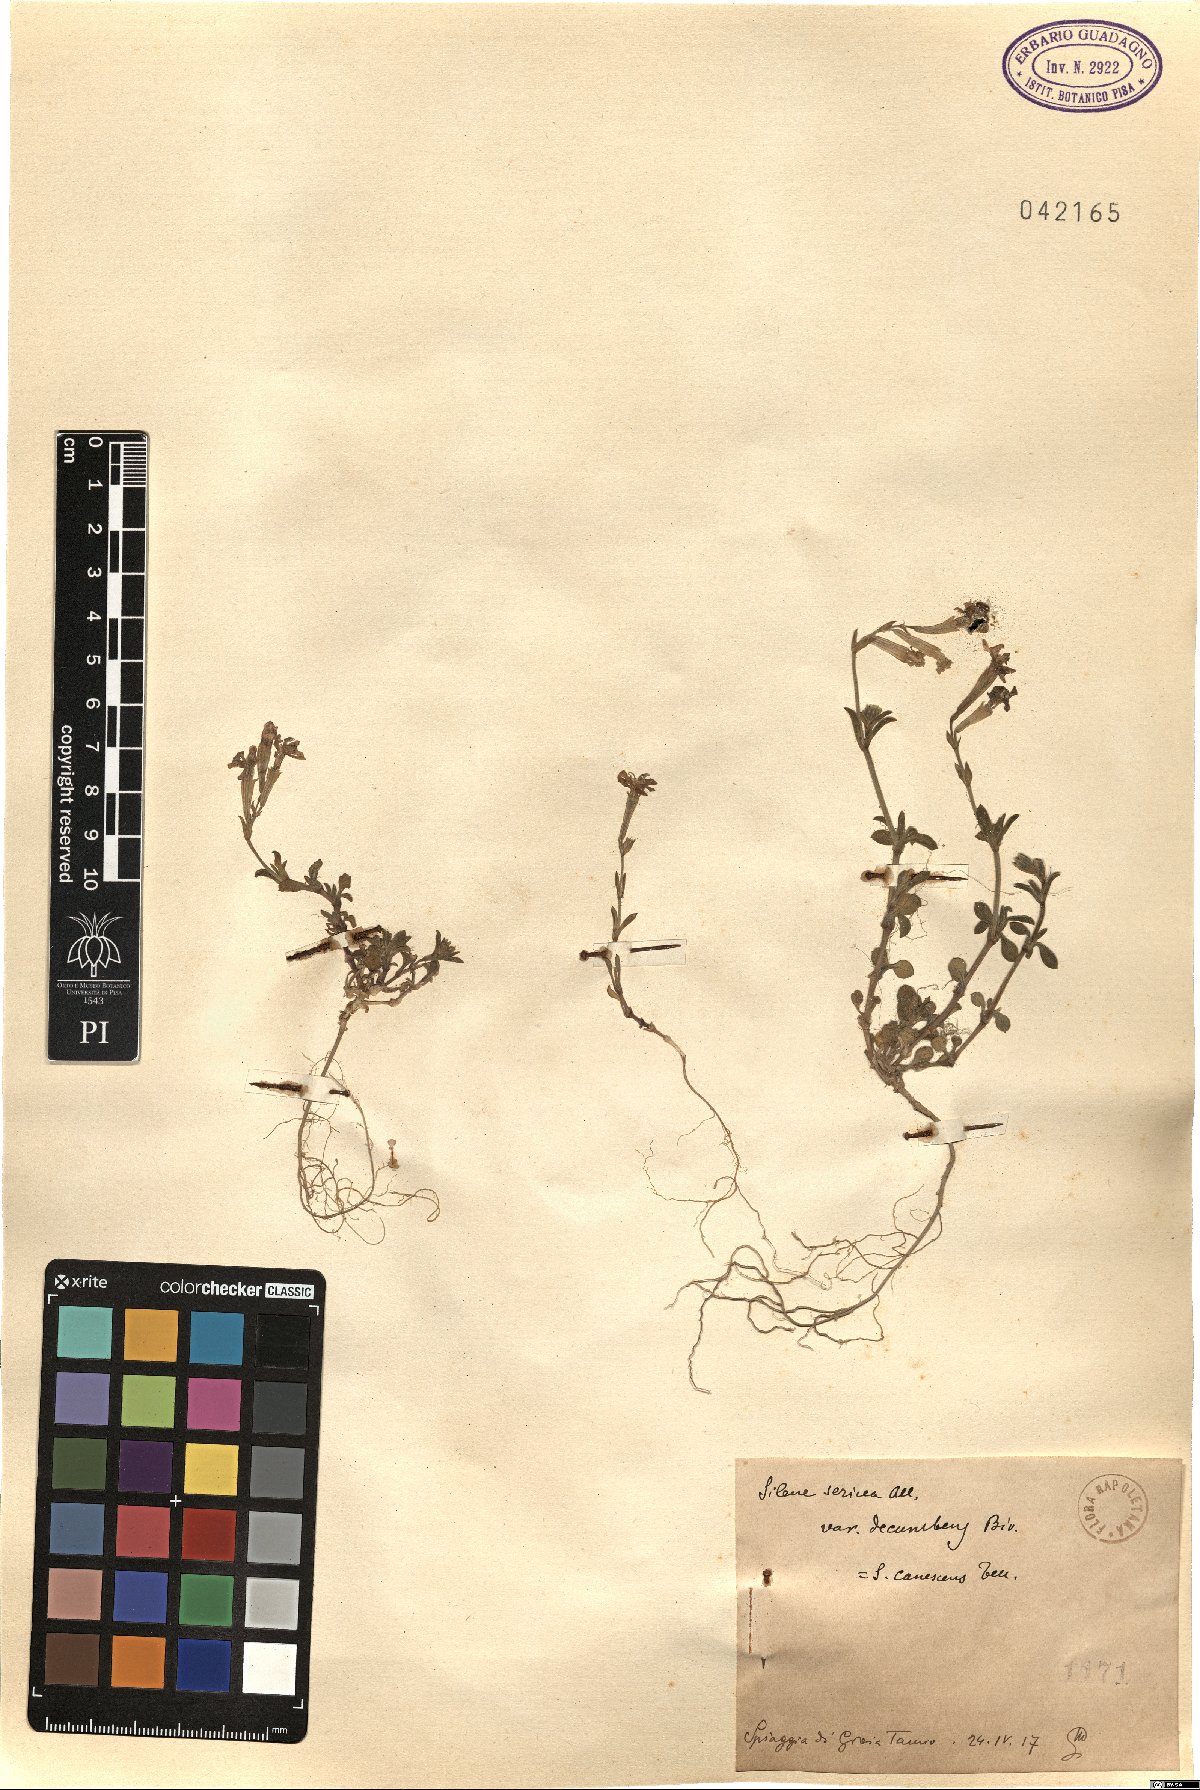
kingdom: Plantae
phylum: Tracheophyta
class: Magnoliopsida
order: Caryophyllales
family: Caryophyllaceae
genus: Silene
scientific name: Silene colorata
